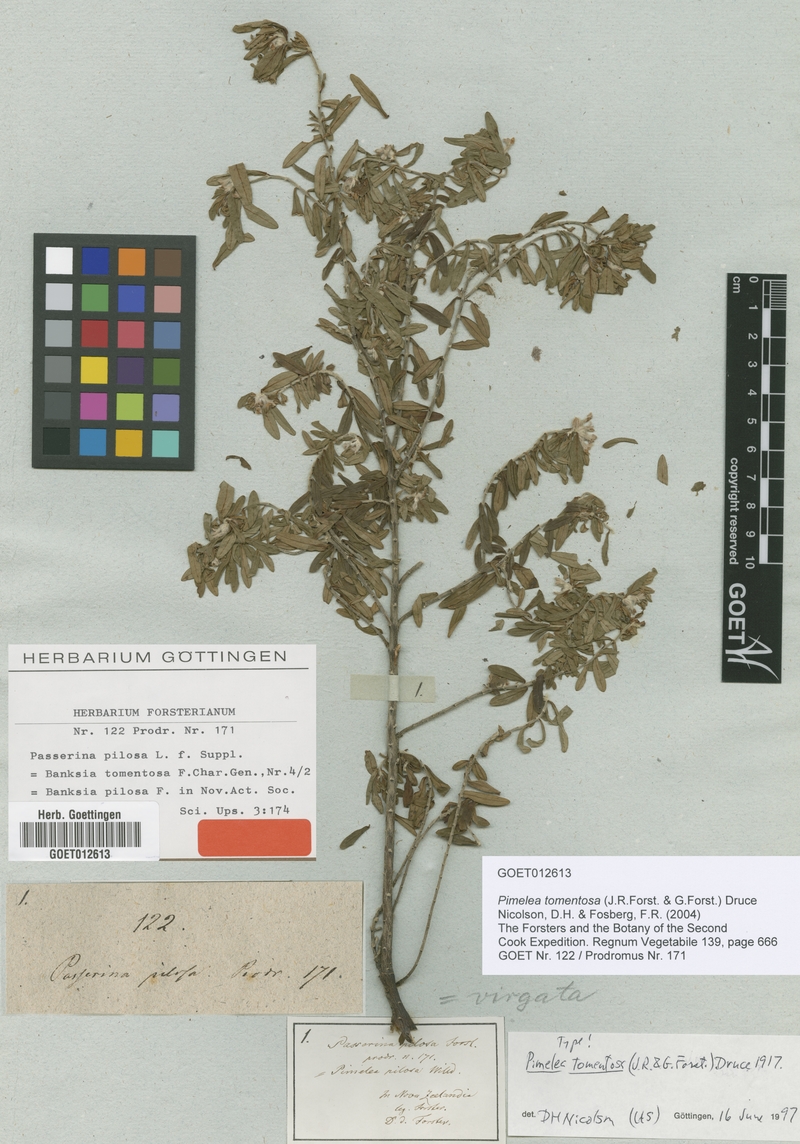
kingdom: Plantae
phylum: Tracheophyta
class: Magnoliopsida
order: Malvales
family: Thymelaeaceae
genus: Pimelea
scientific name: Pimelea tomentosa
